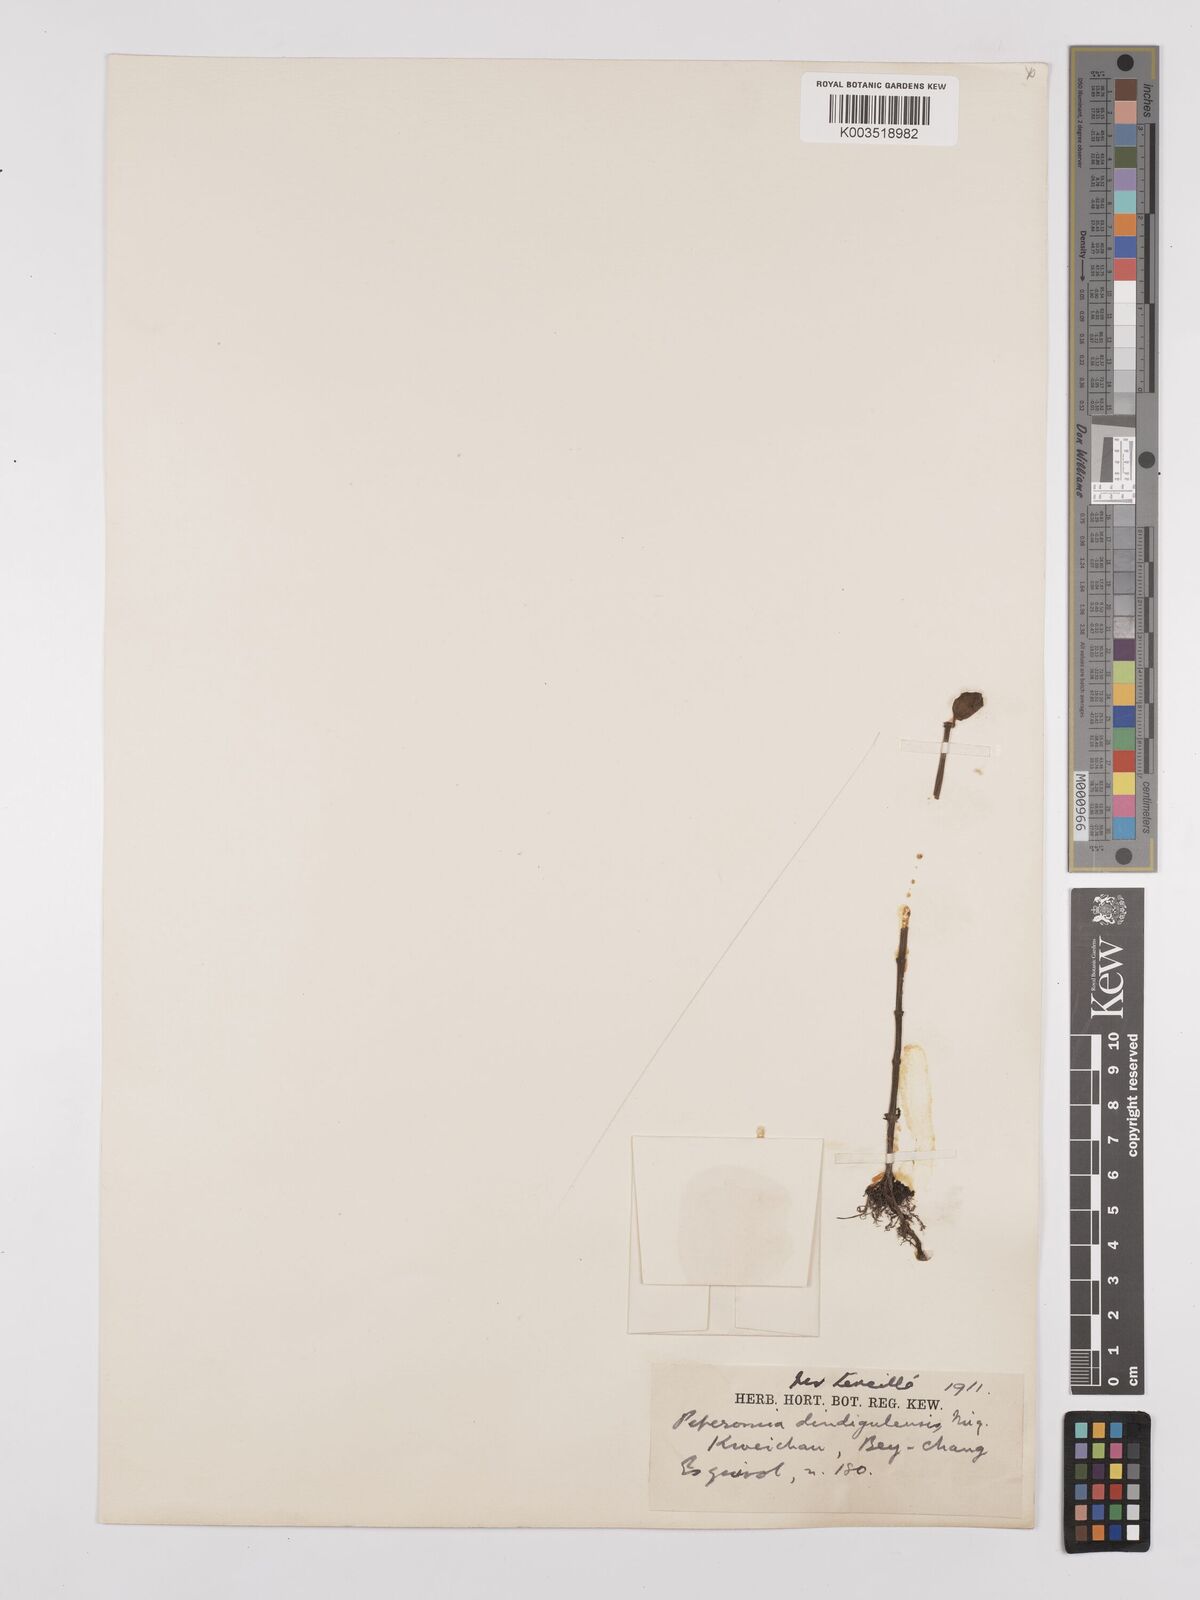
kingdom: Plantae
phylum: Tracheophyta
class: Magnoliopsida
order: Piperales
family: Piperaceae
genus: Peperomia
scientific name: Peperomia leptostachya
